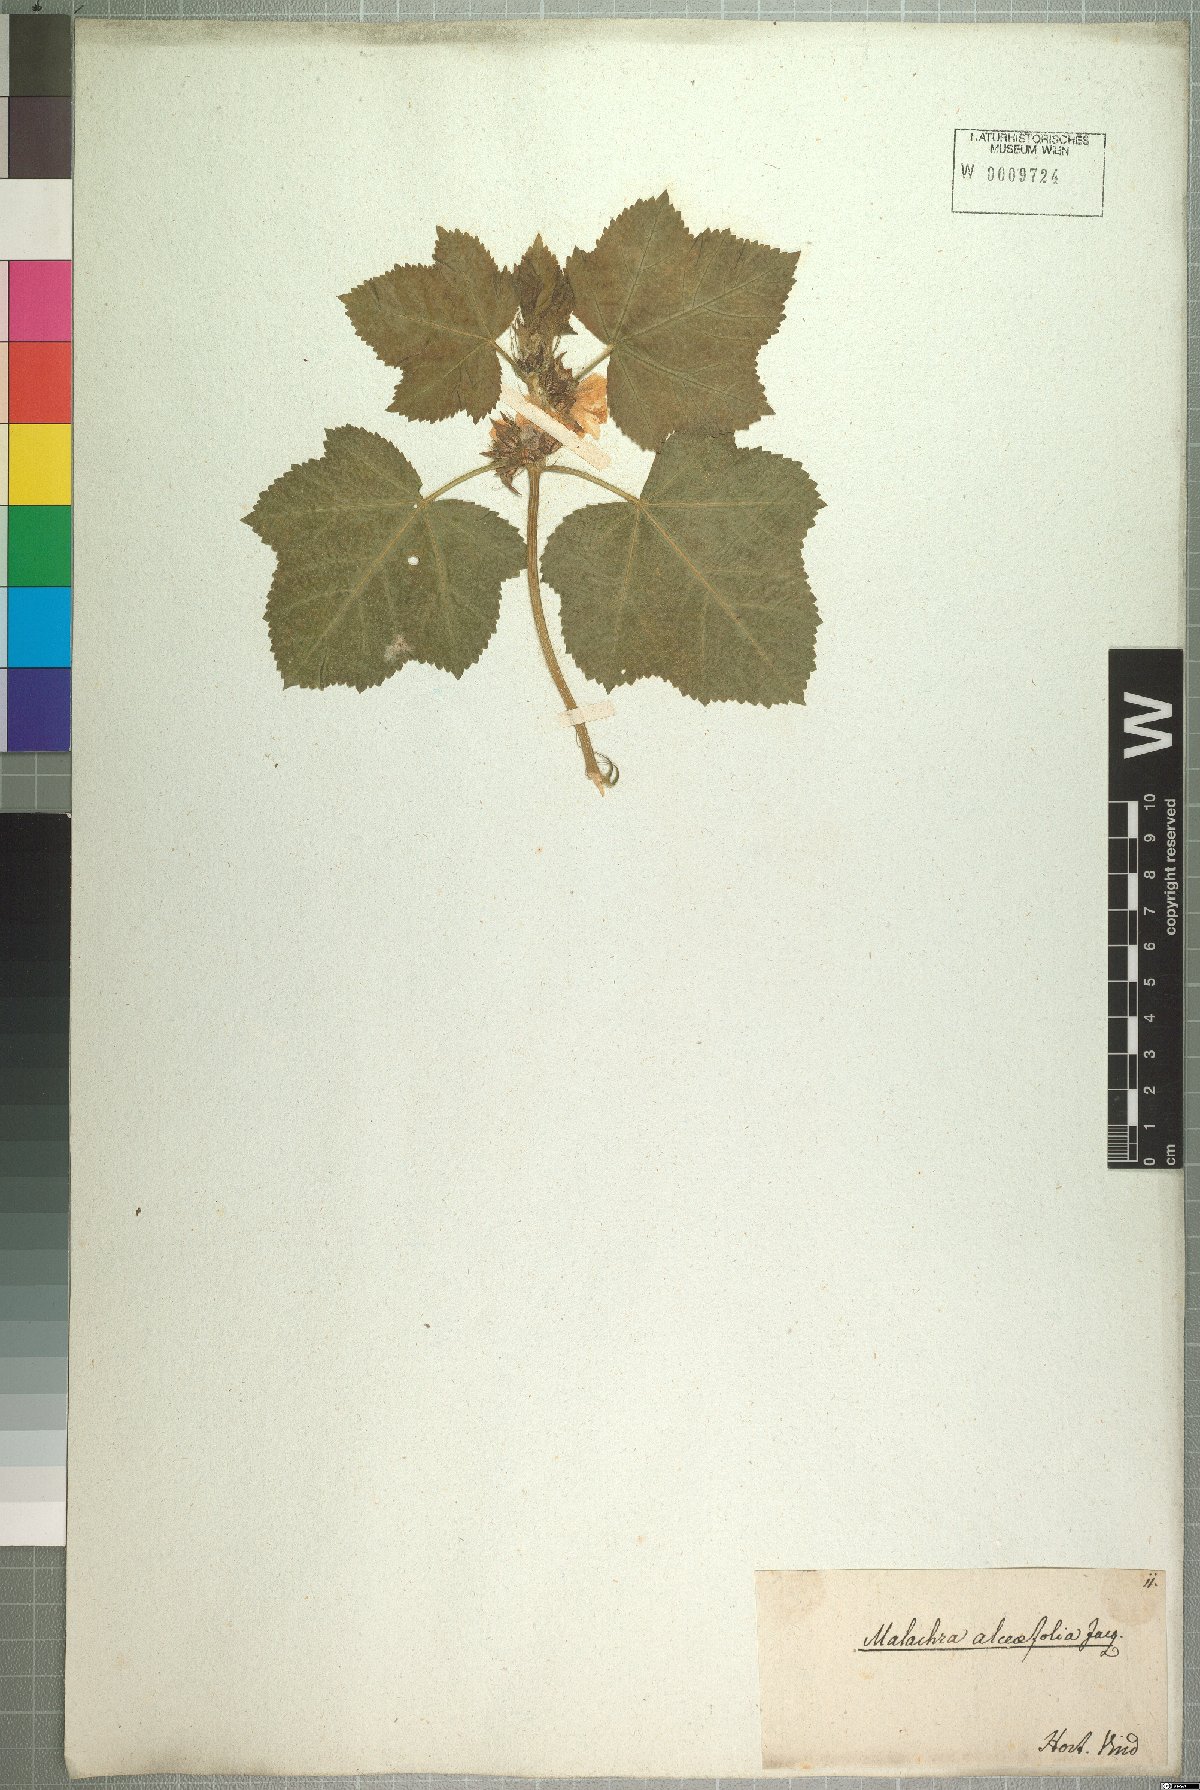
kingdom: Plantae
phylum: Tracheophyta
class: Magnoliopsida
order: Malvales
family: Malvaceae
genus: Malachra
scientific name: Malachra alceifolia
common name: Yellow leafbract
